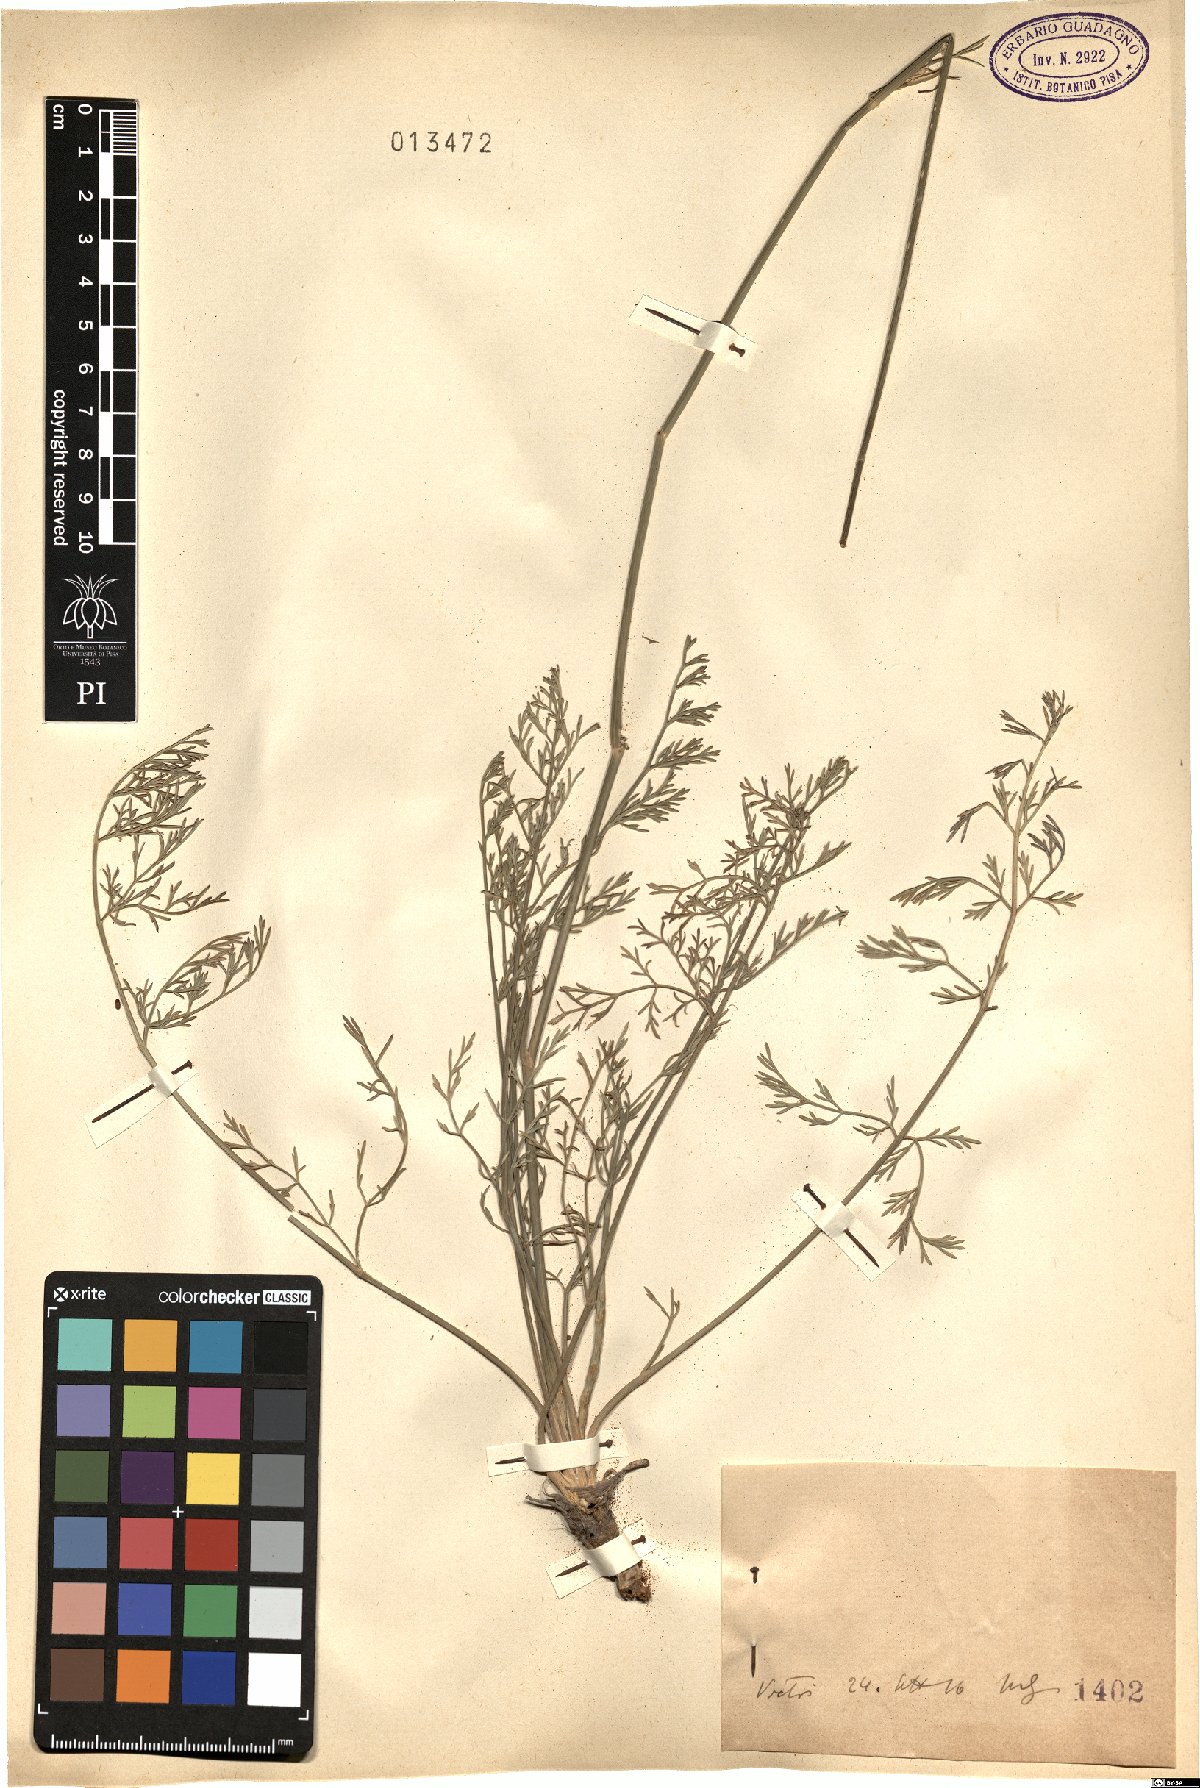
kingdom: Plantae
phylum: Tracheophyta
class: Magnoliopsida
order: Apiales
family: Apiaceae
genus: Seseli
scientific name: Seseli
